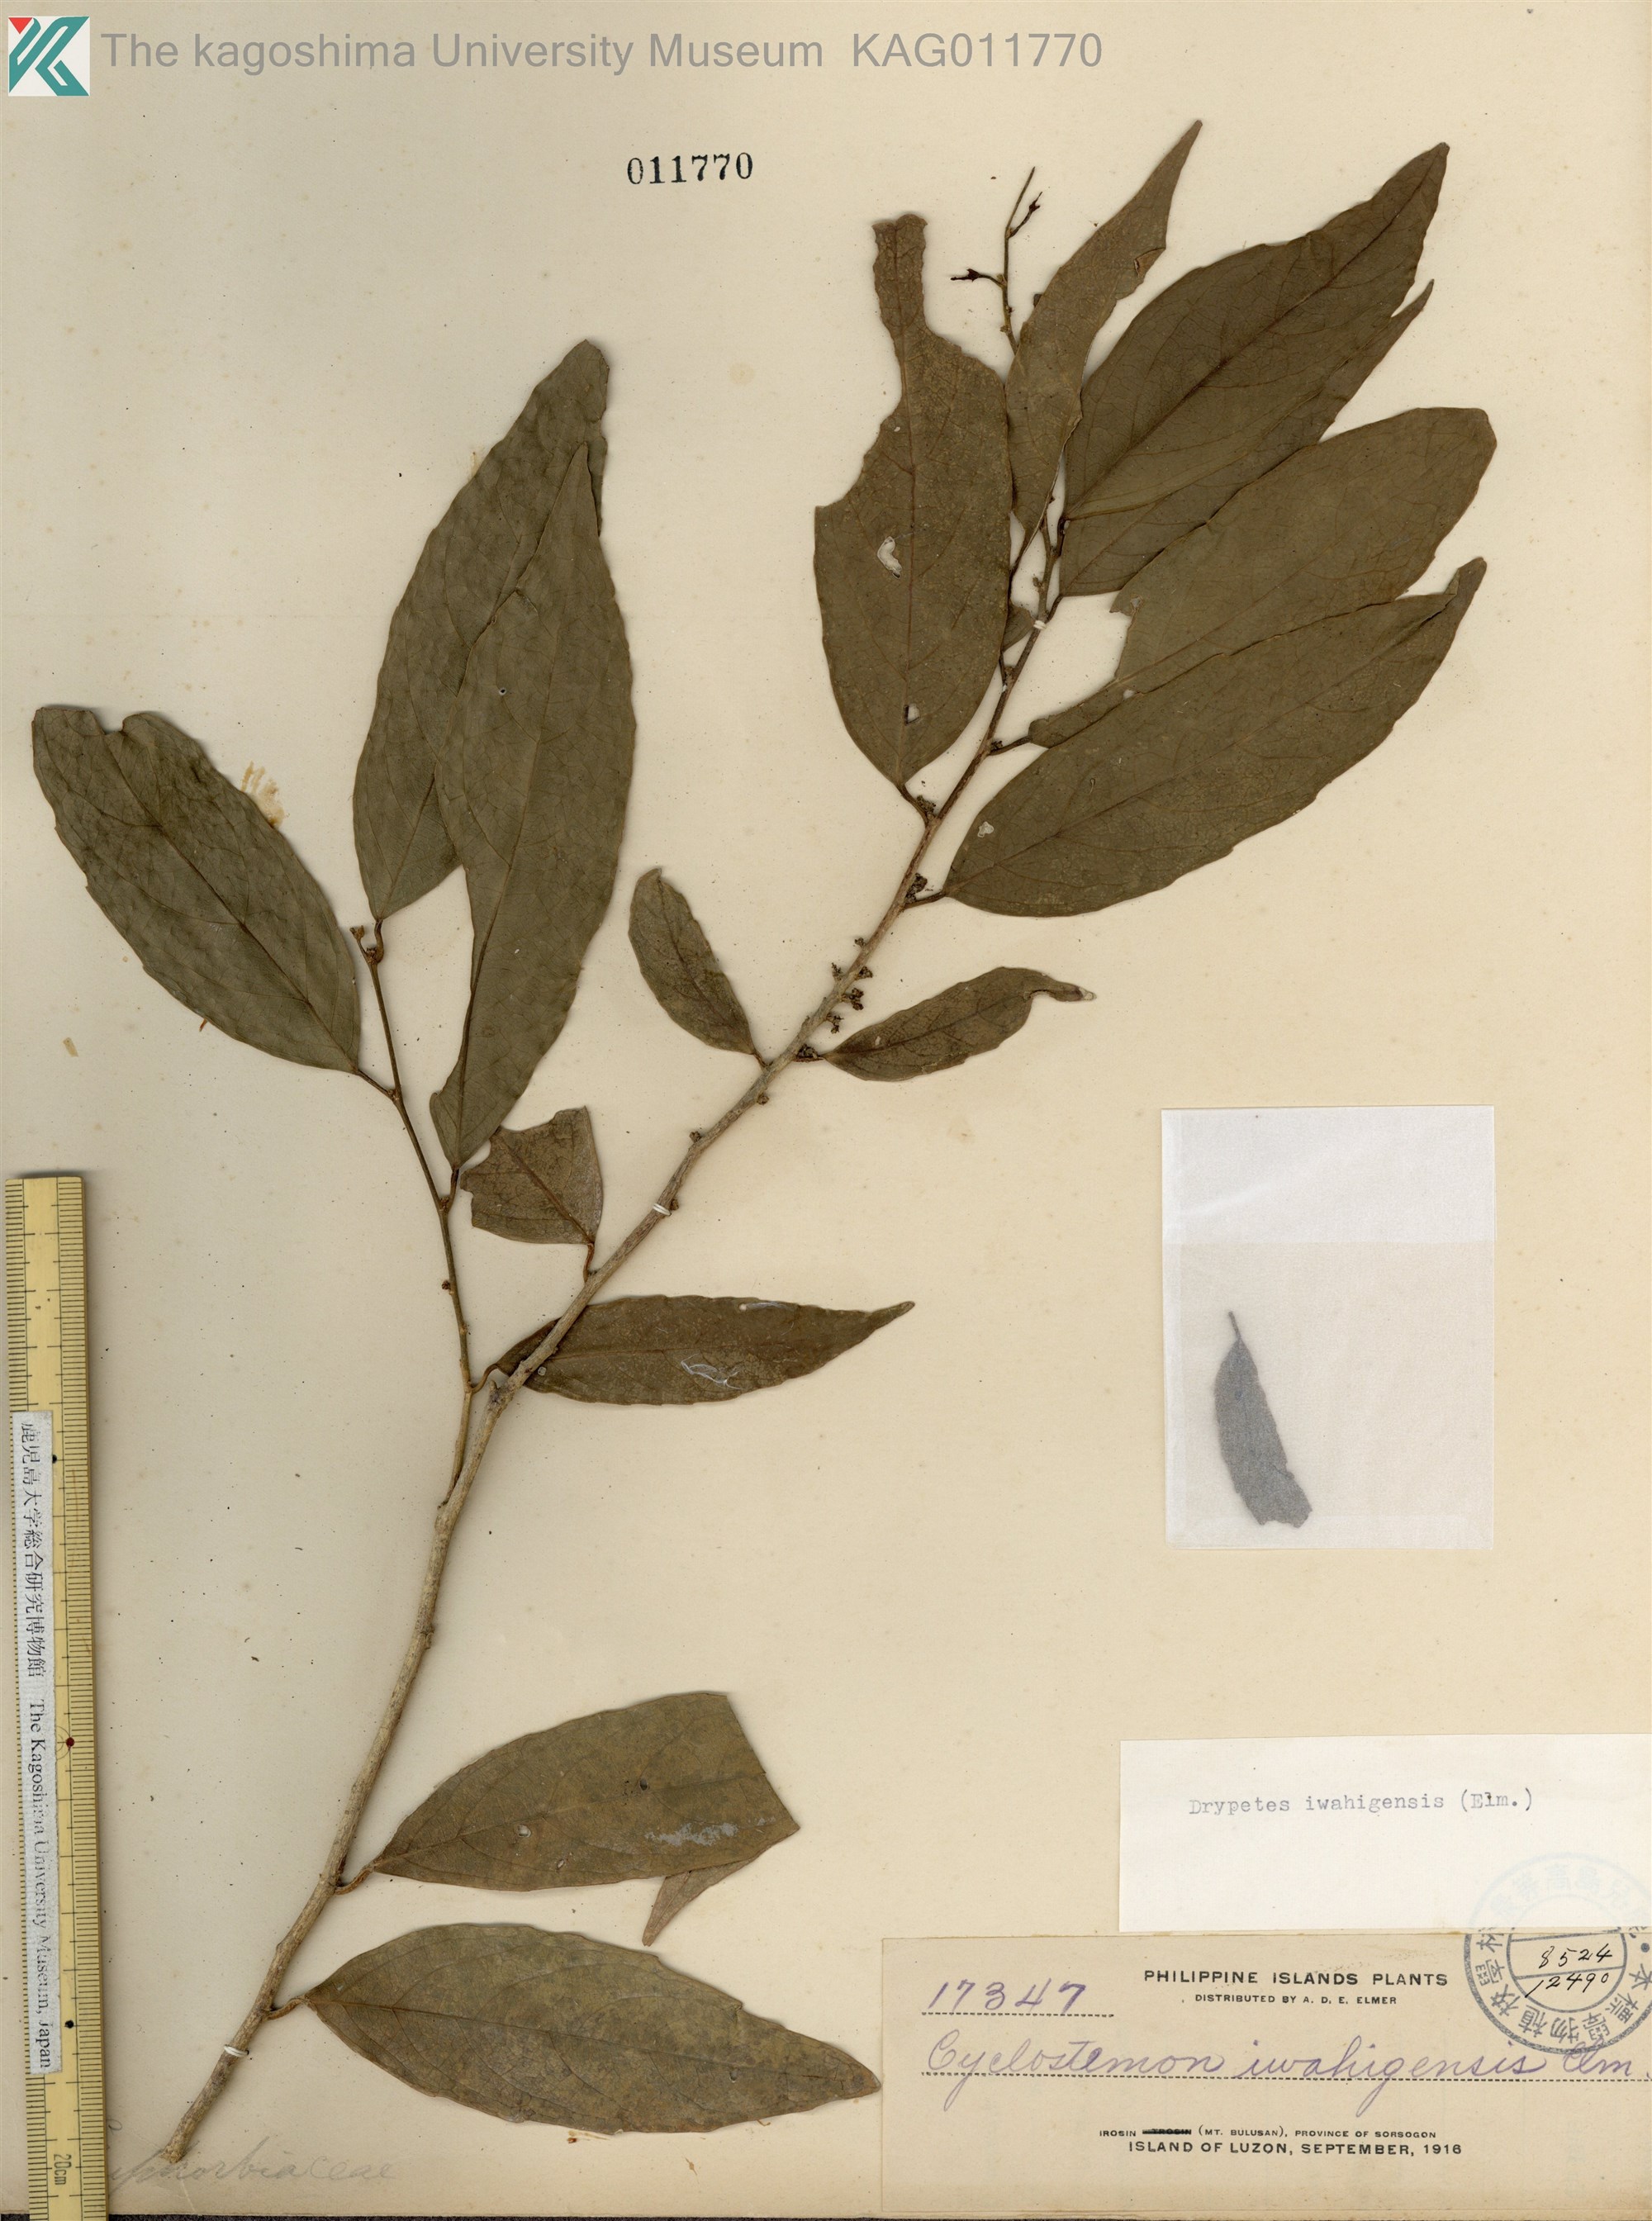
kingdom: Plantae
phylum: Tracheophyta
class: Magnoliopsida
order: Malpighiales
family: Putranjivaceae
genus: Drypetes
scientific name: Drypetes
